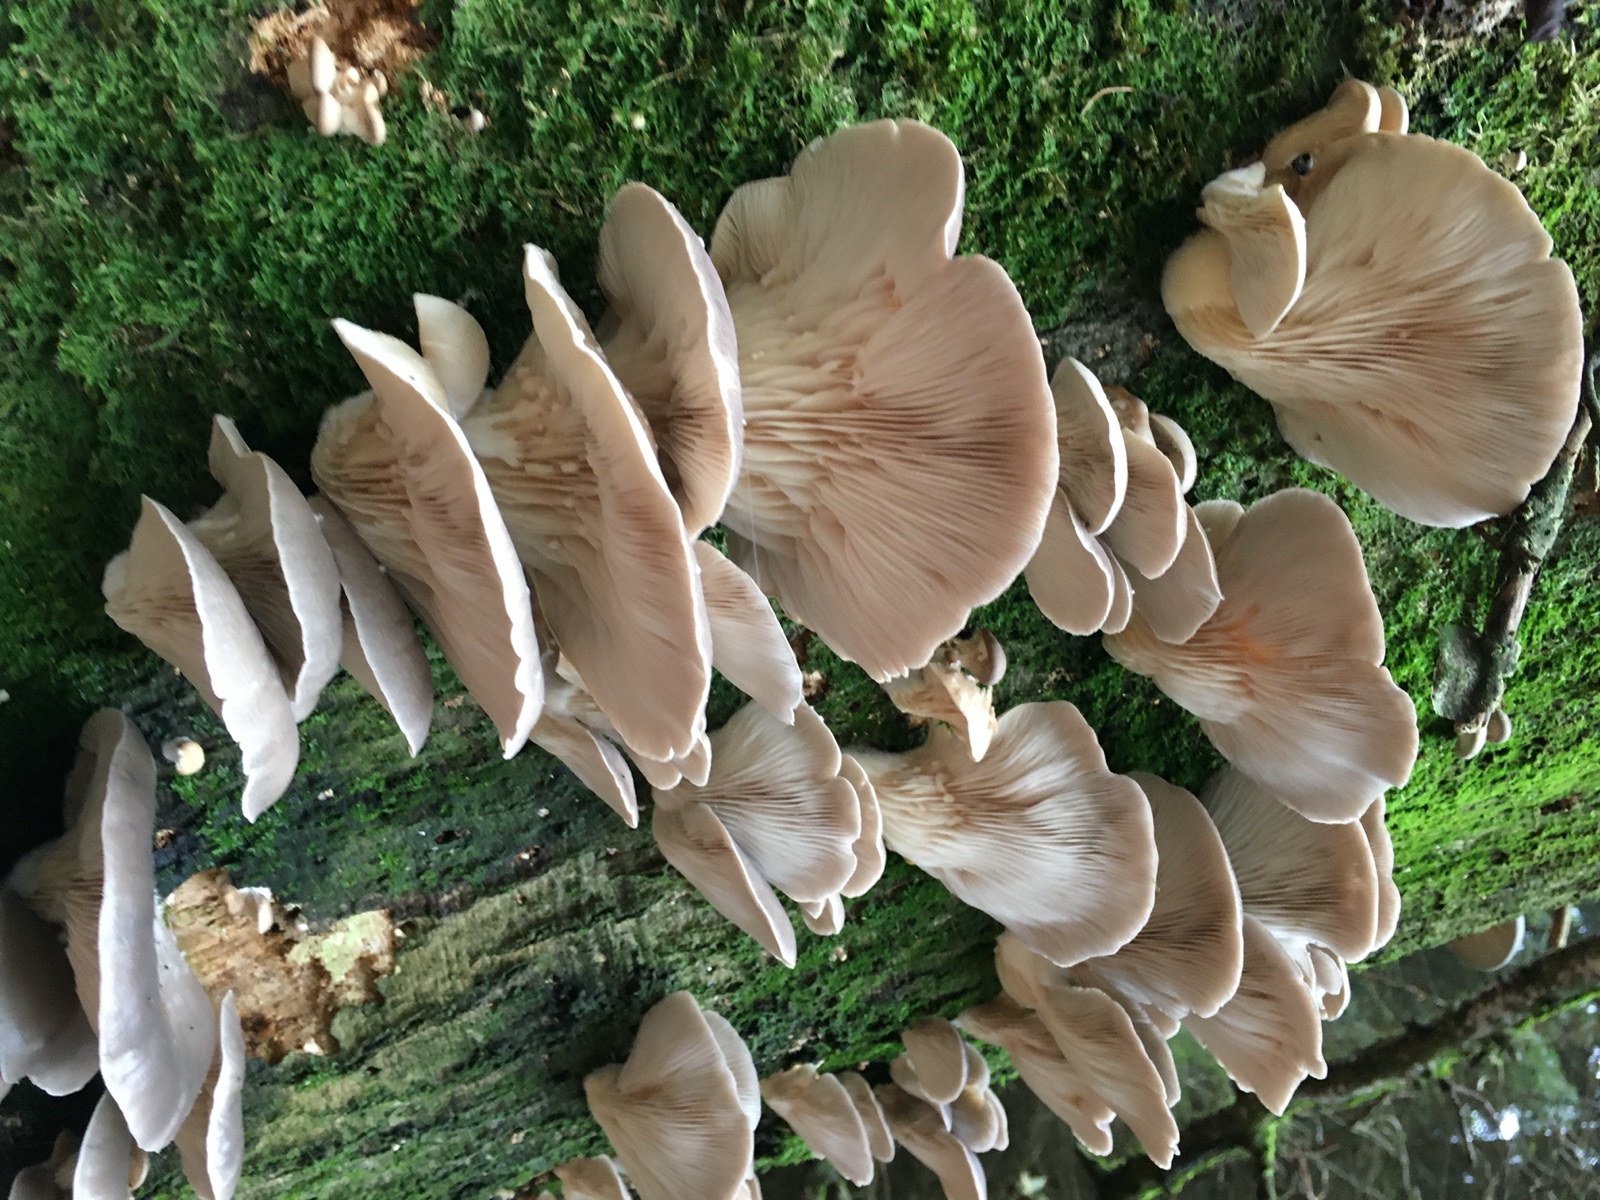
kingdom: Fungi
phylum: Basidiomycota
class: Agaricomycetes
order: Agaricales
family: Pleurotaceae
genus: Pleurotus
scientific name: Pleurotus ostreatus
